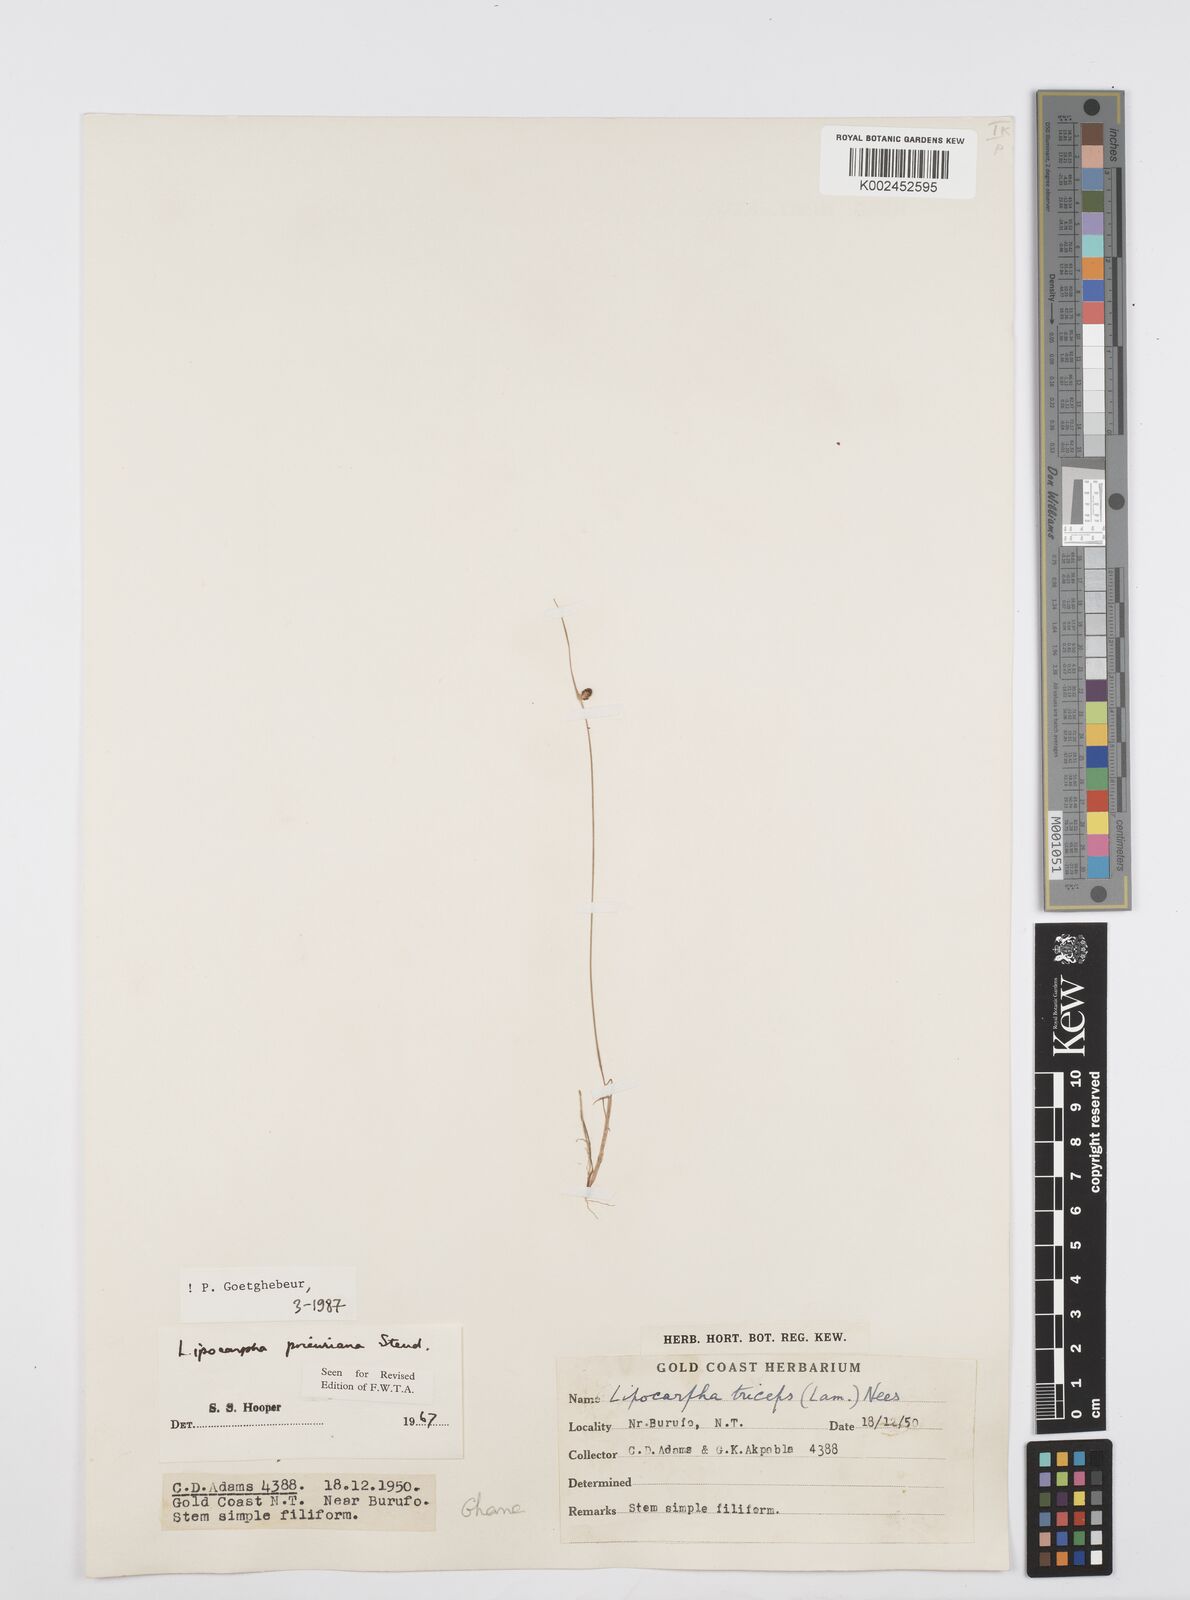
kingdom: Plantae
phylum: Tracheophyta
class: Liliopsida
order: Poales
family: Cyperaceae
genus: Cyperus
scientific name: Cyperus prieurianus
